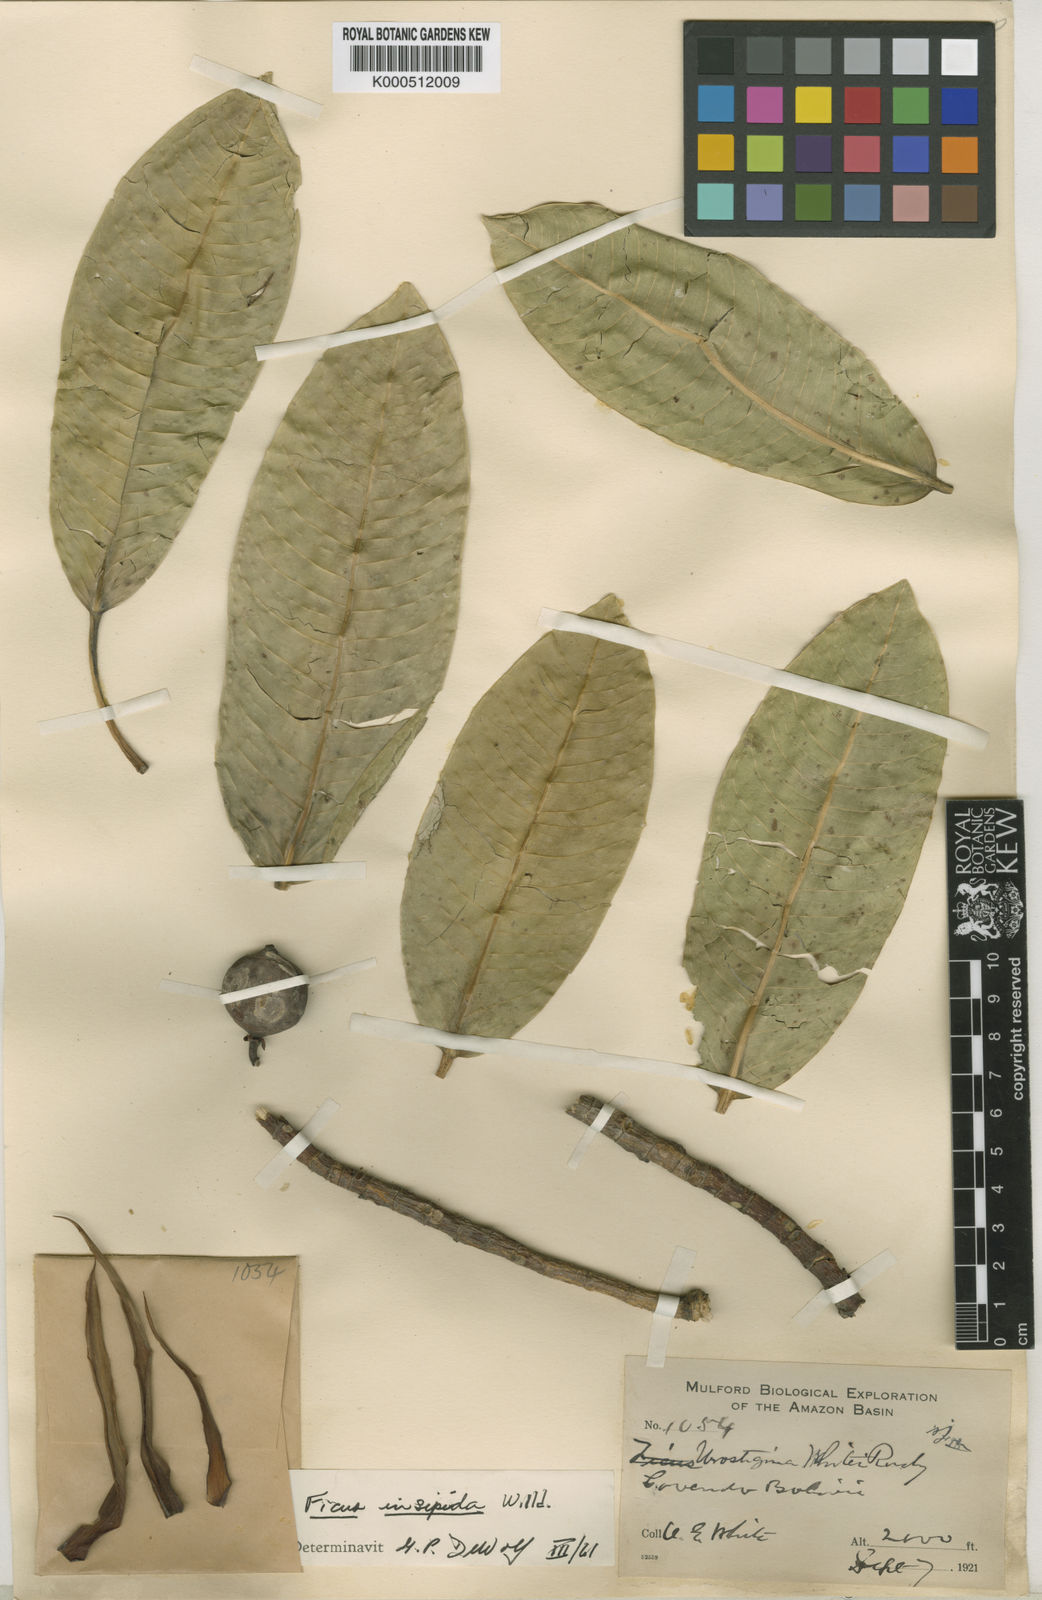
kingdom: Plantae
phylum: Tracheophyta
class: Magnoliopsida
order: Rosales
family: Moraceae
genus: Ficus
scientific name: Ficus insipida
